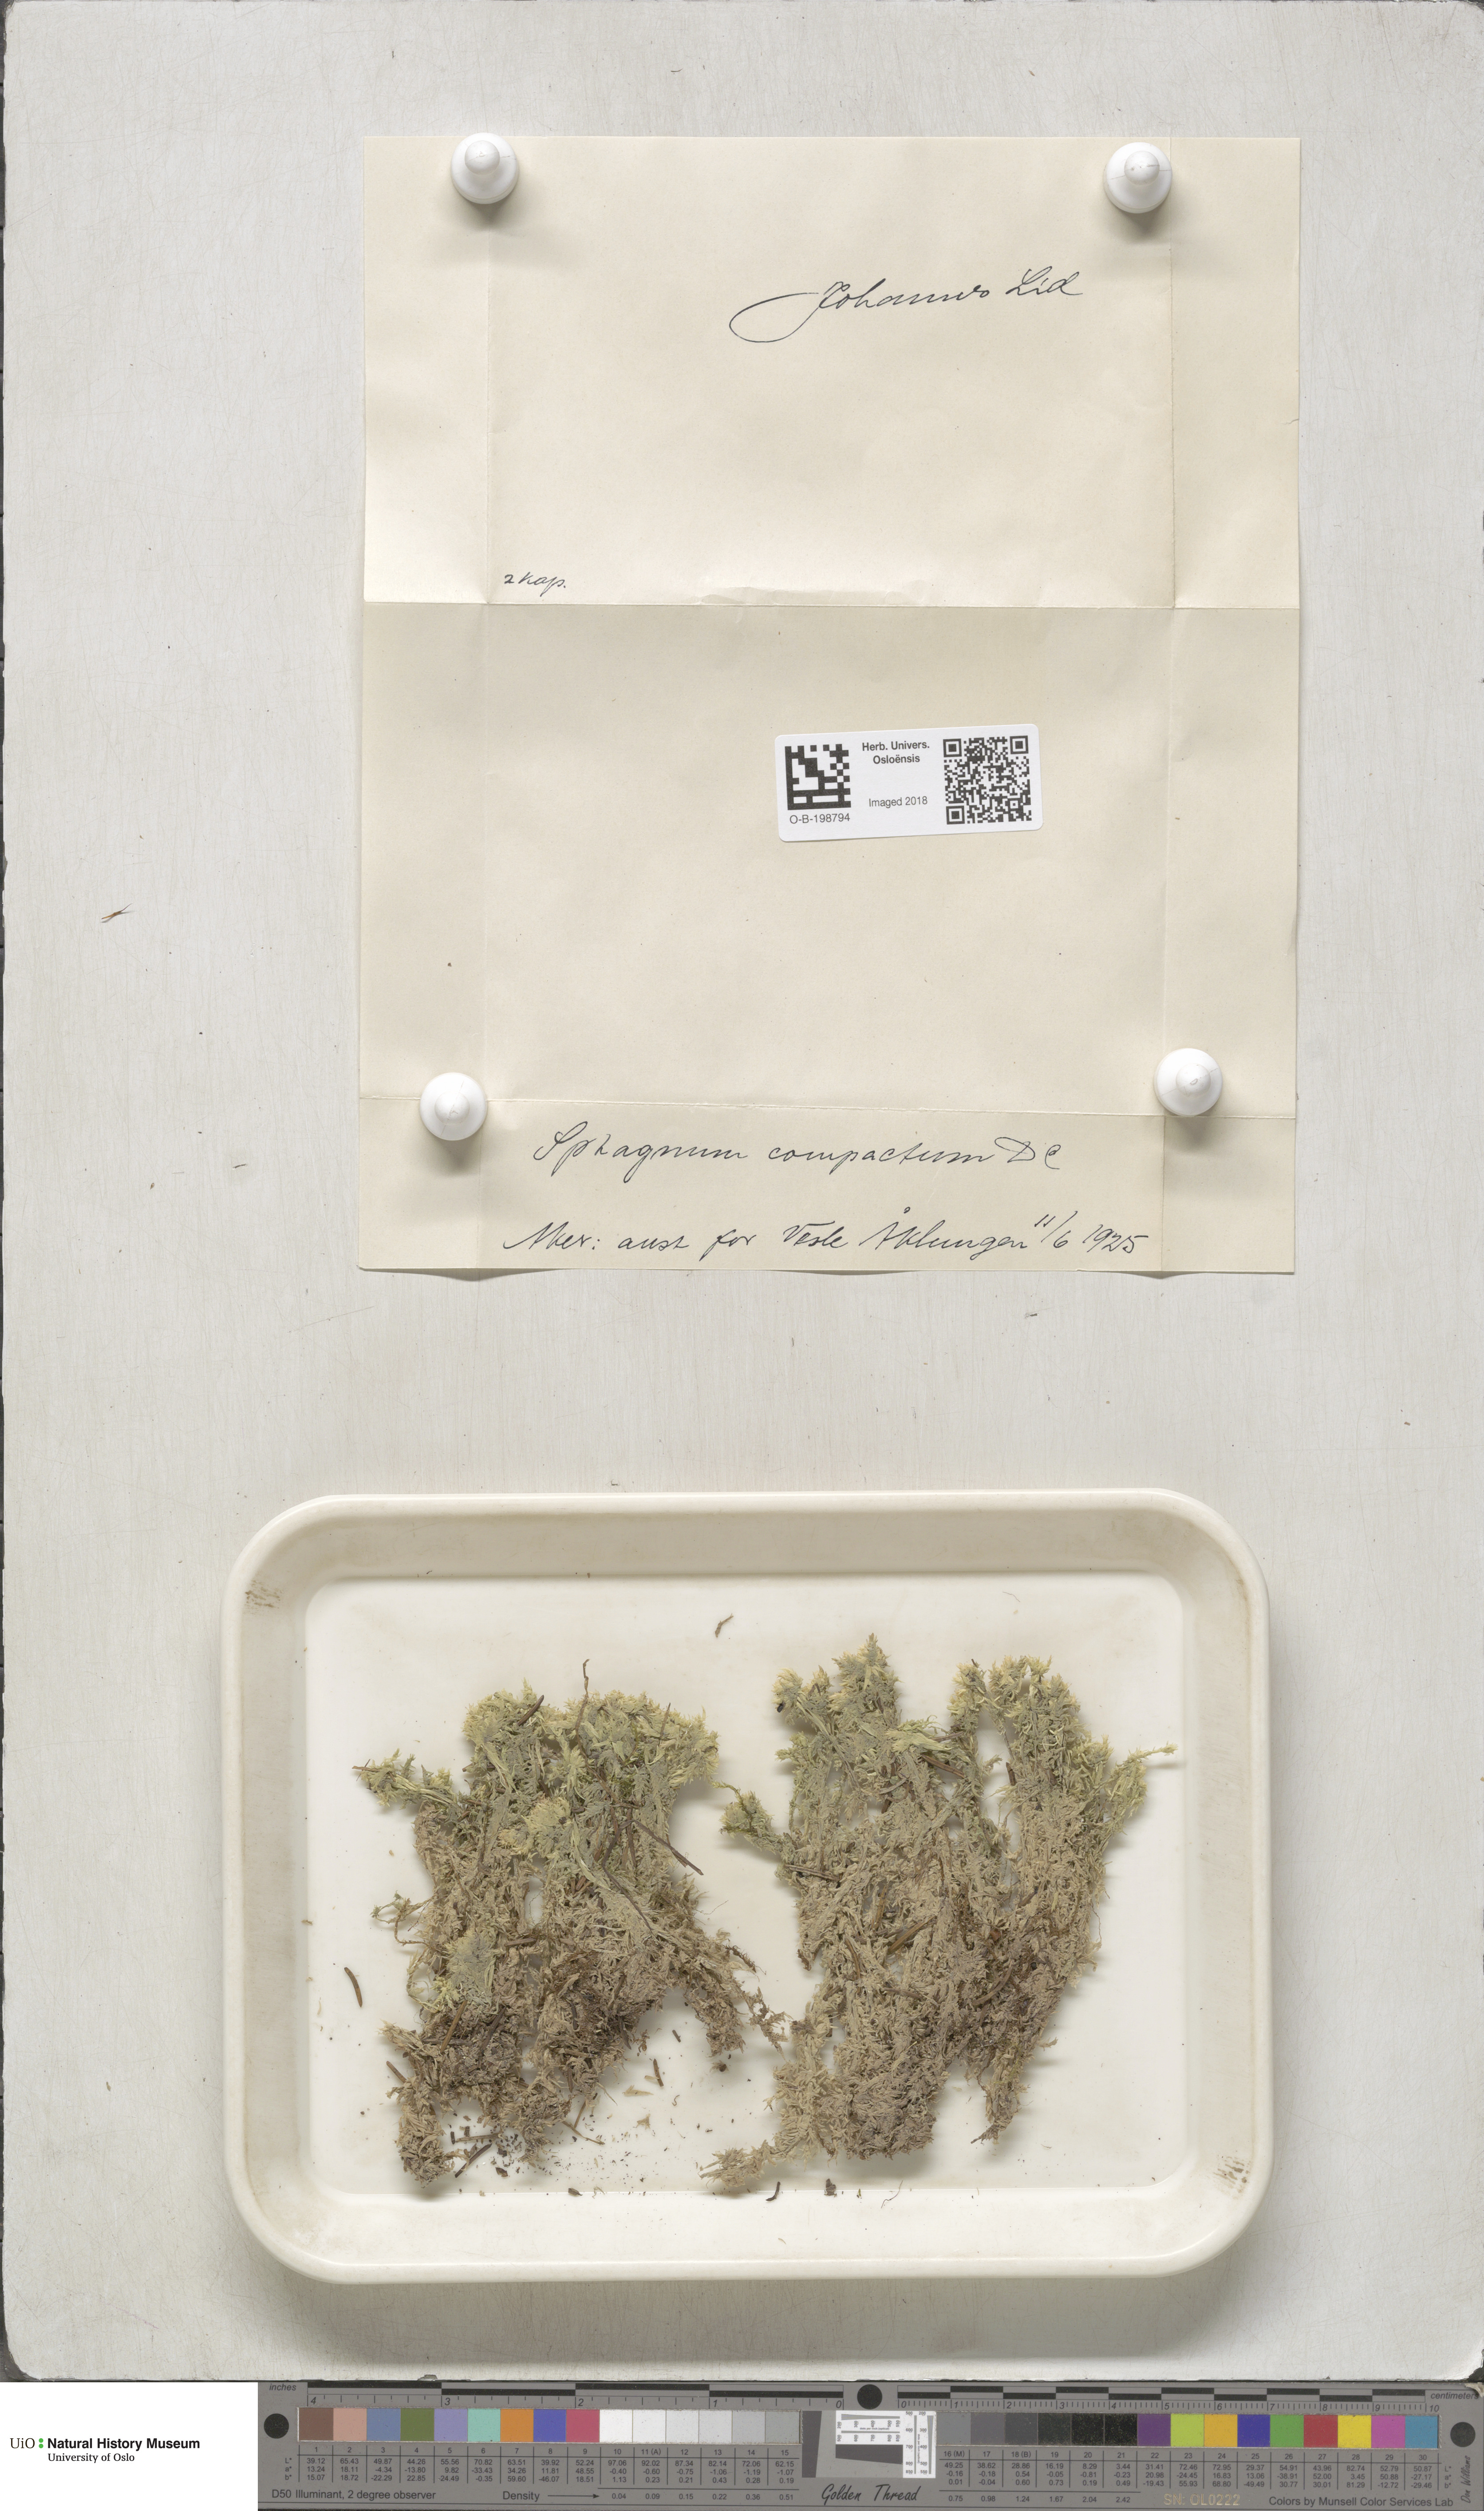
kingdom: Plantae
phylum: Bryophyta
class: Sphagnopsida
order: Sphagnales
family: Sphagnaceae
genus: Sphagnum
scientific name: Sphagnum compactum
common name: Compact peat moss
